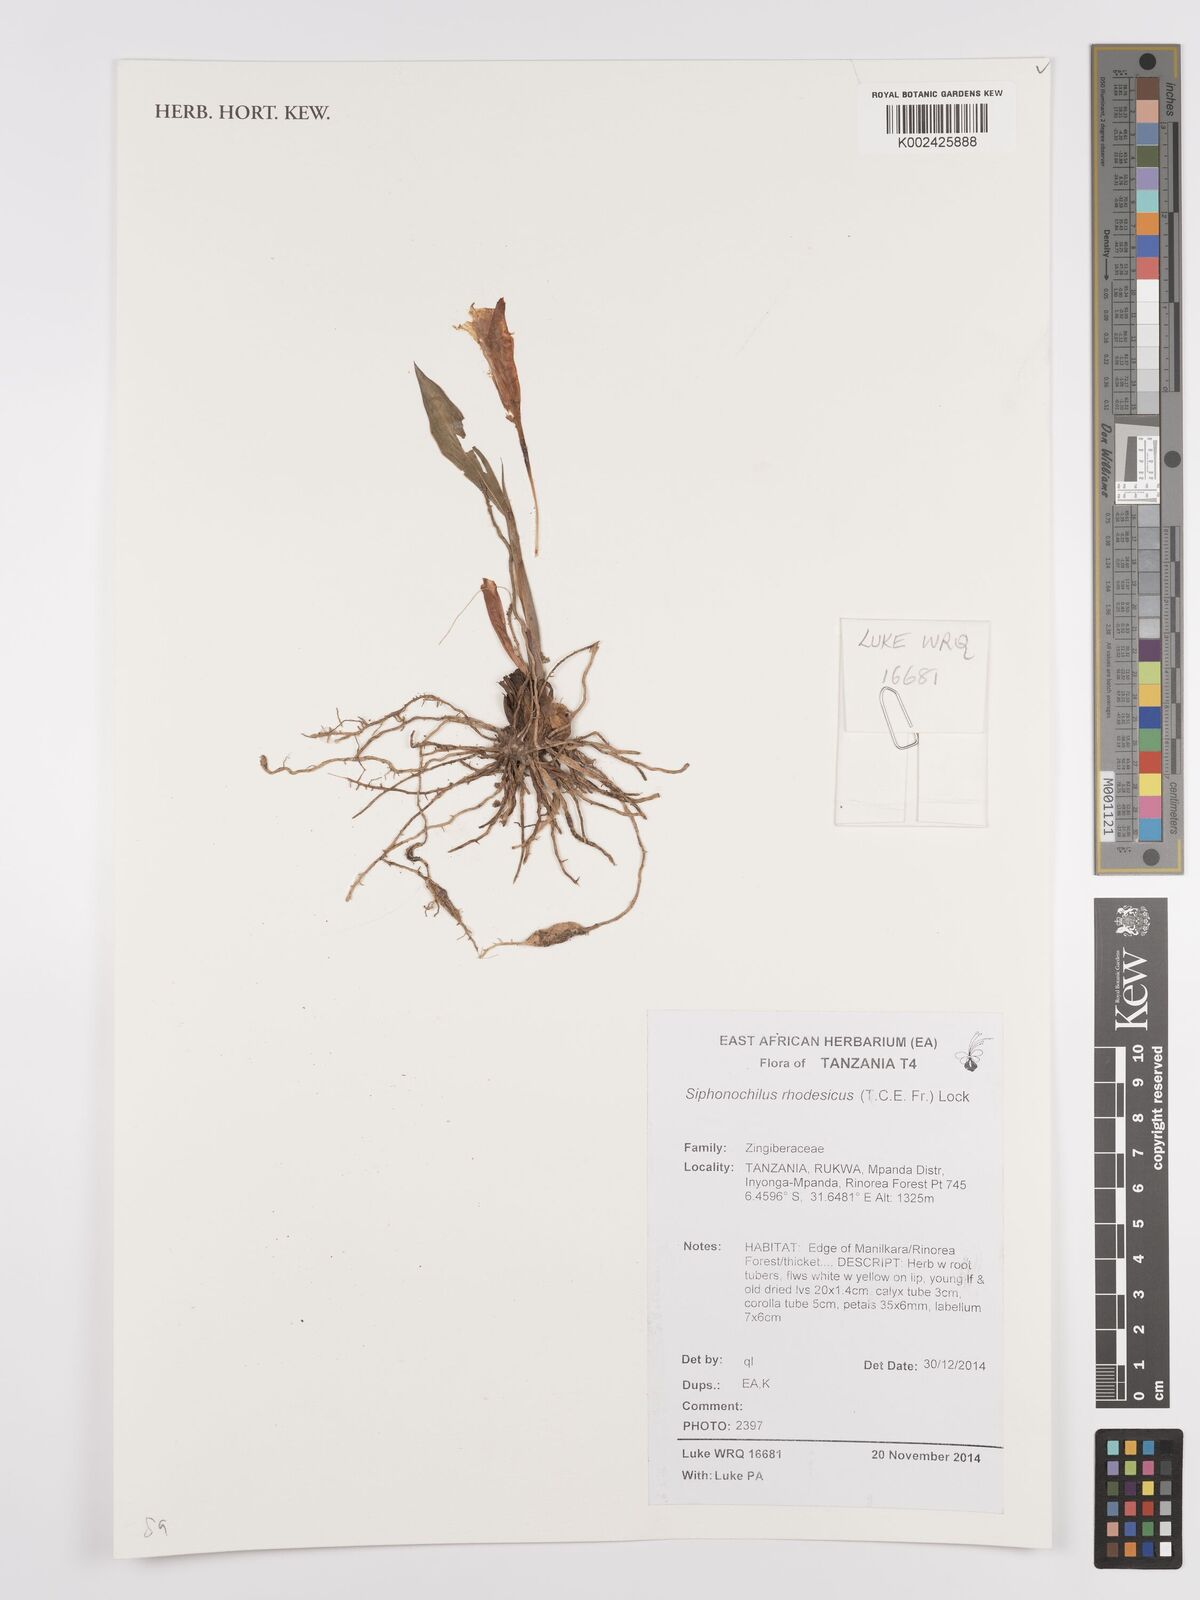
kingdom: Plantae
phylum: Tracheophyta
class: Liliopsida
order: Zingiberales
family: Zingiberaceae
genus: Siphonochilus
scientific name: Siphonochilus rhodesicus
